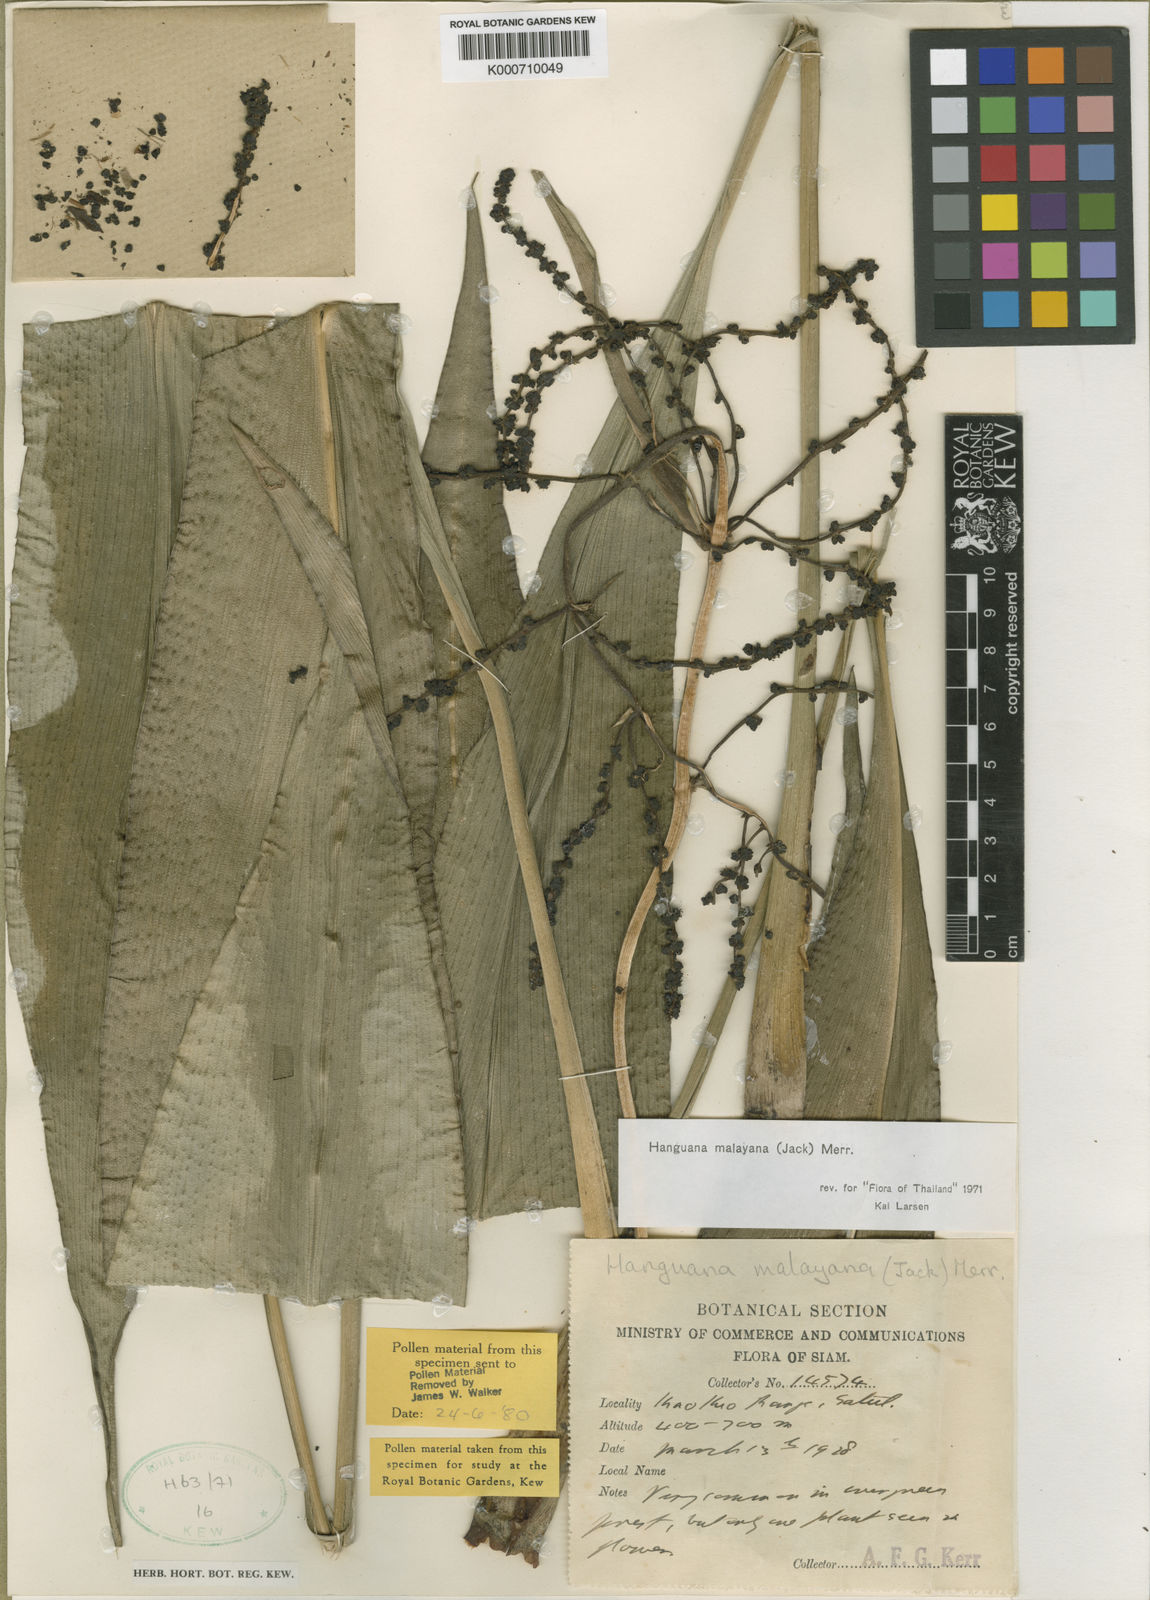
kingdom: Plantae
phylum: Tracheophyta
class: Liliopsida
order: Commelinales
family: Hanguanaceae
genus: Hanguana
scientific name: Hanguana malayana
